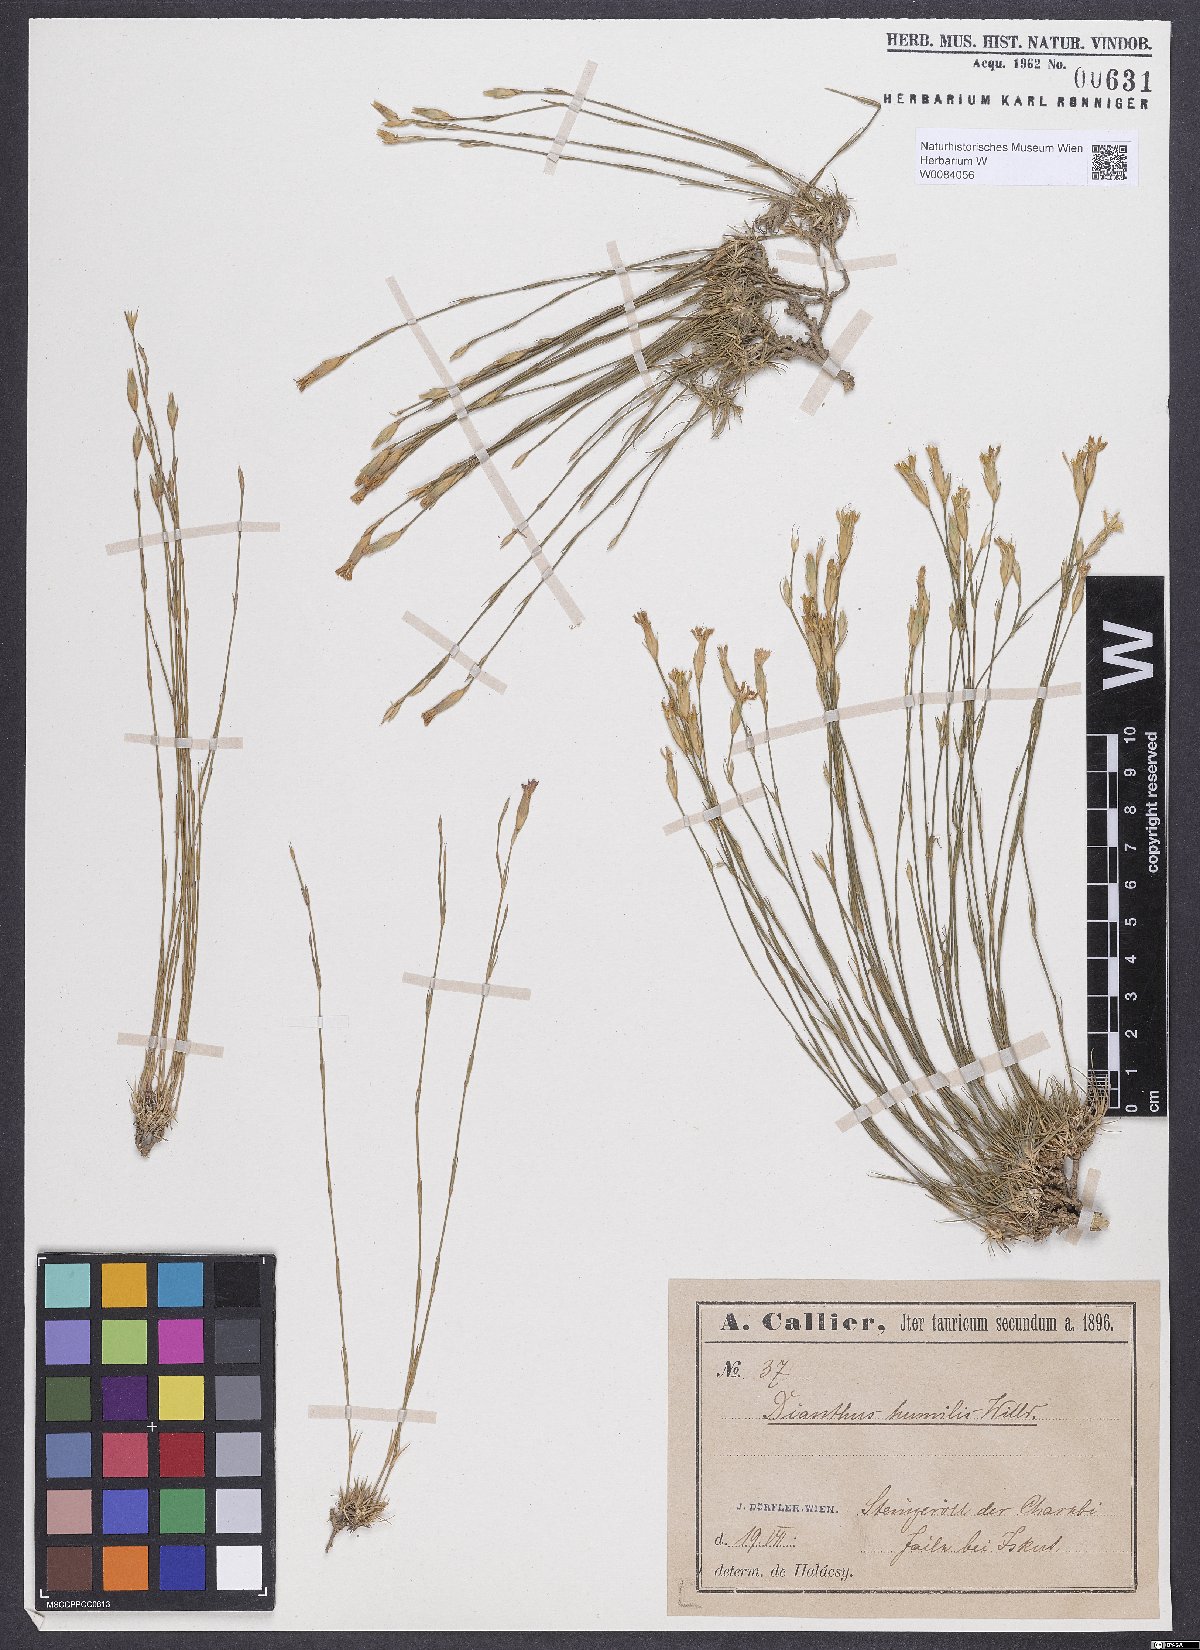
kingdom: Plantae
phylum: Tracheophyta
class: Magnoliopsida
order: Caryophyllales
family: Caryophyllaceae
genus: Dianthus
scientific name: Dianthus humilis
